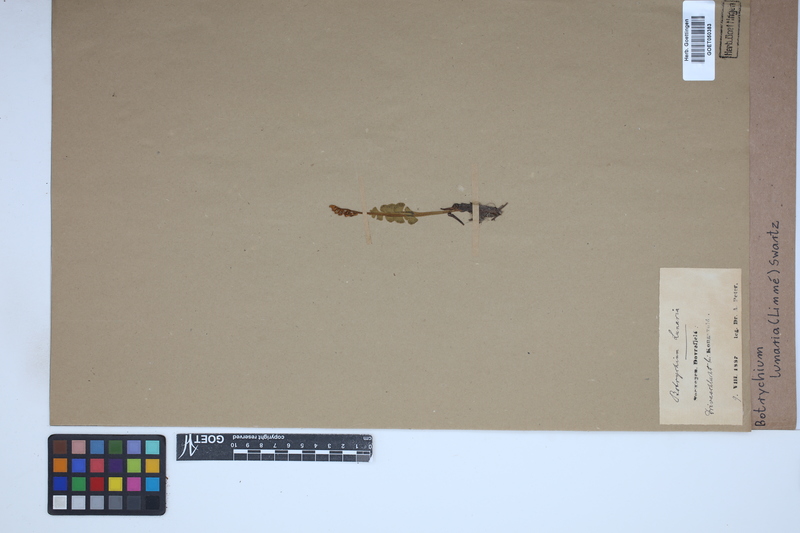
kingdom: Plantae
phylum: Tracheophyta
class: Polypodiopsida
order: Ophioglossales
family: Ophioglossaceae
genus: Botrychium
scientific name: Botrychium lunaria
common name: Moonwort
